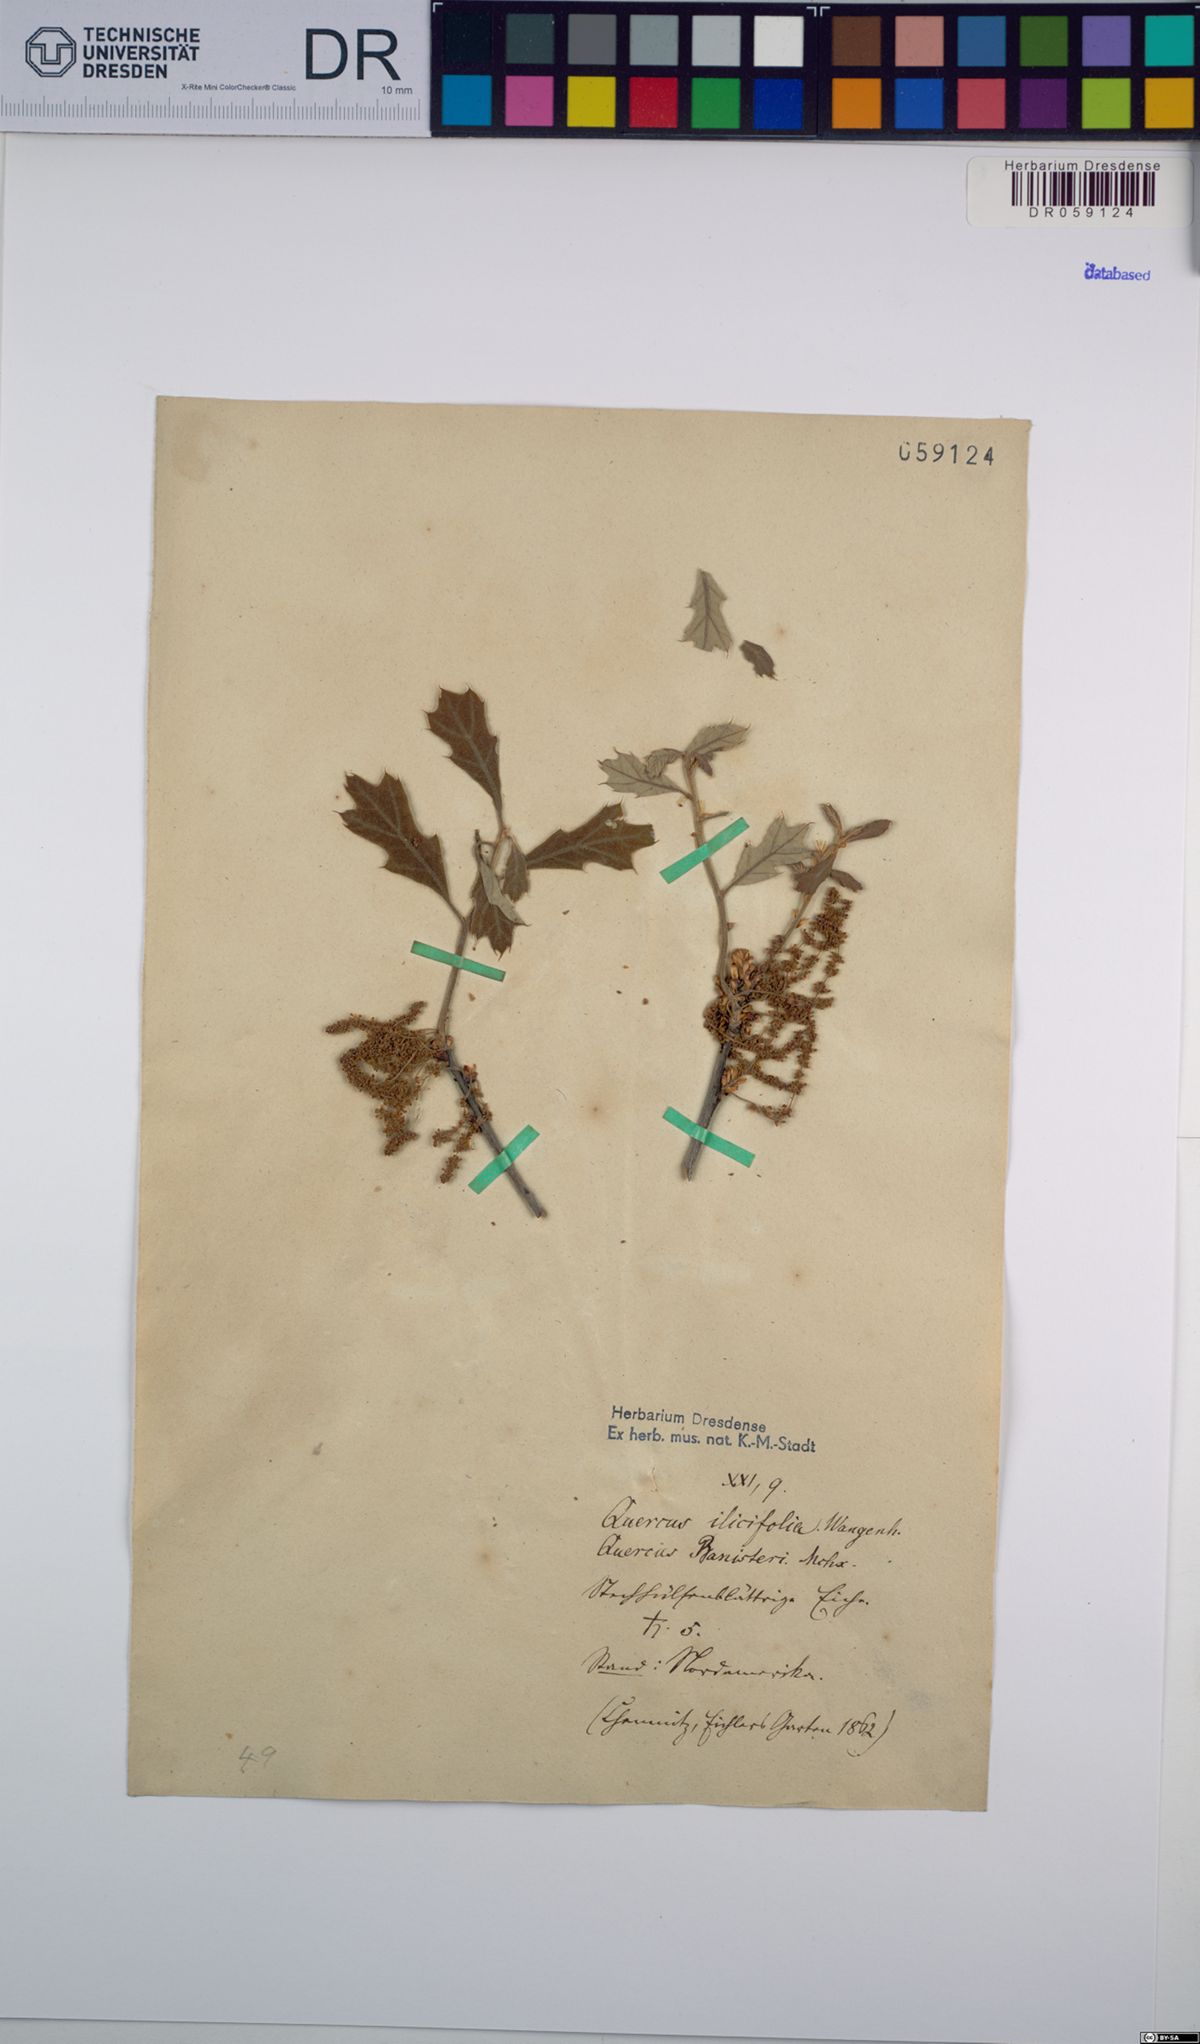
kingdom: Plantae
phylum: Tracheophyta
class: Magnoliopsida
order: Fagales
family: Fagaceae
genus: Quercus
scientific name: Quercus ilicifolia
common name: Bear oak
